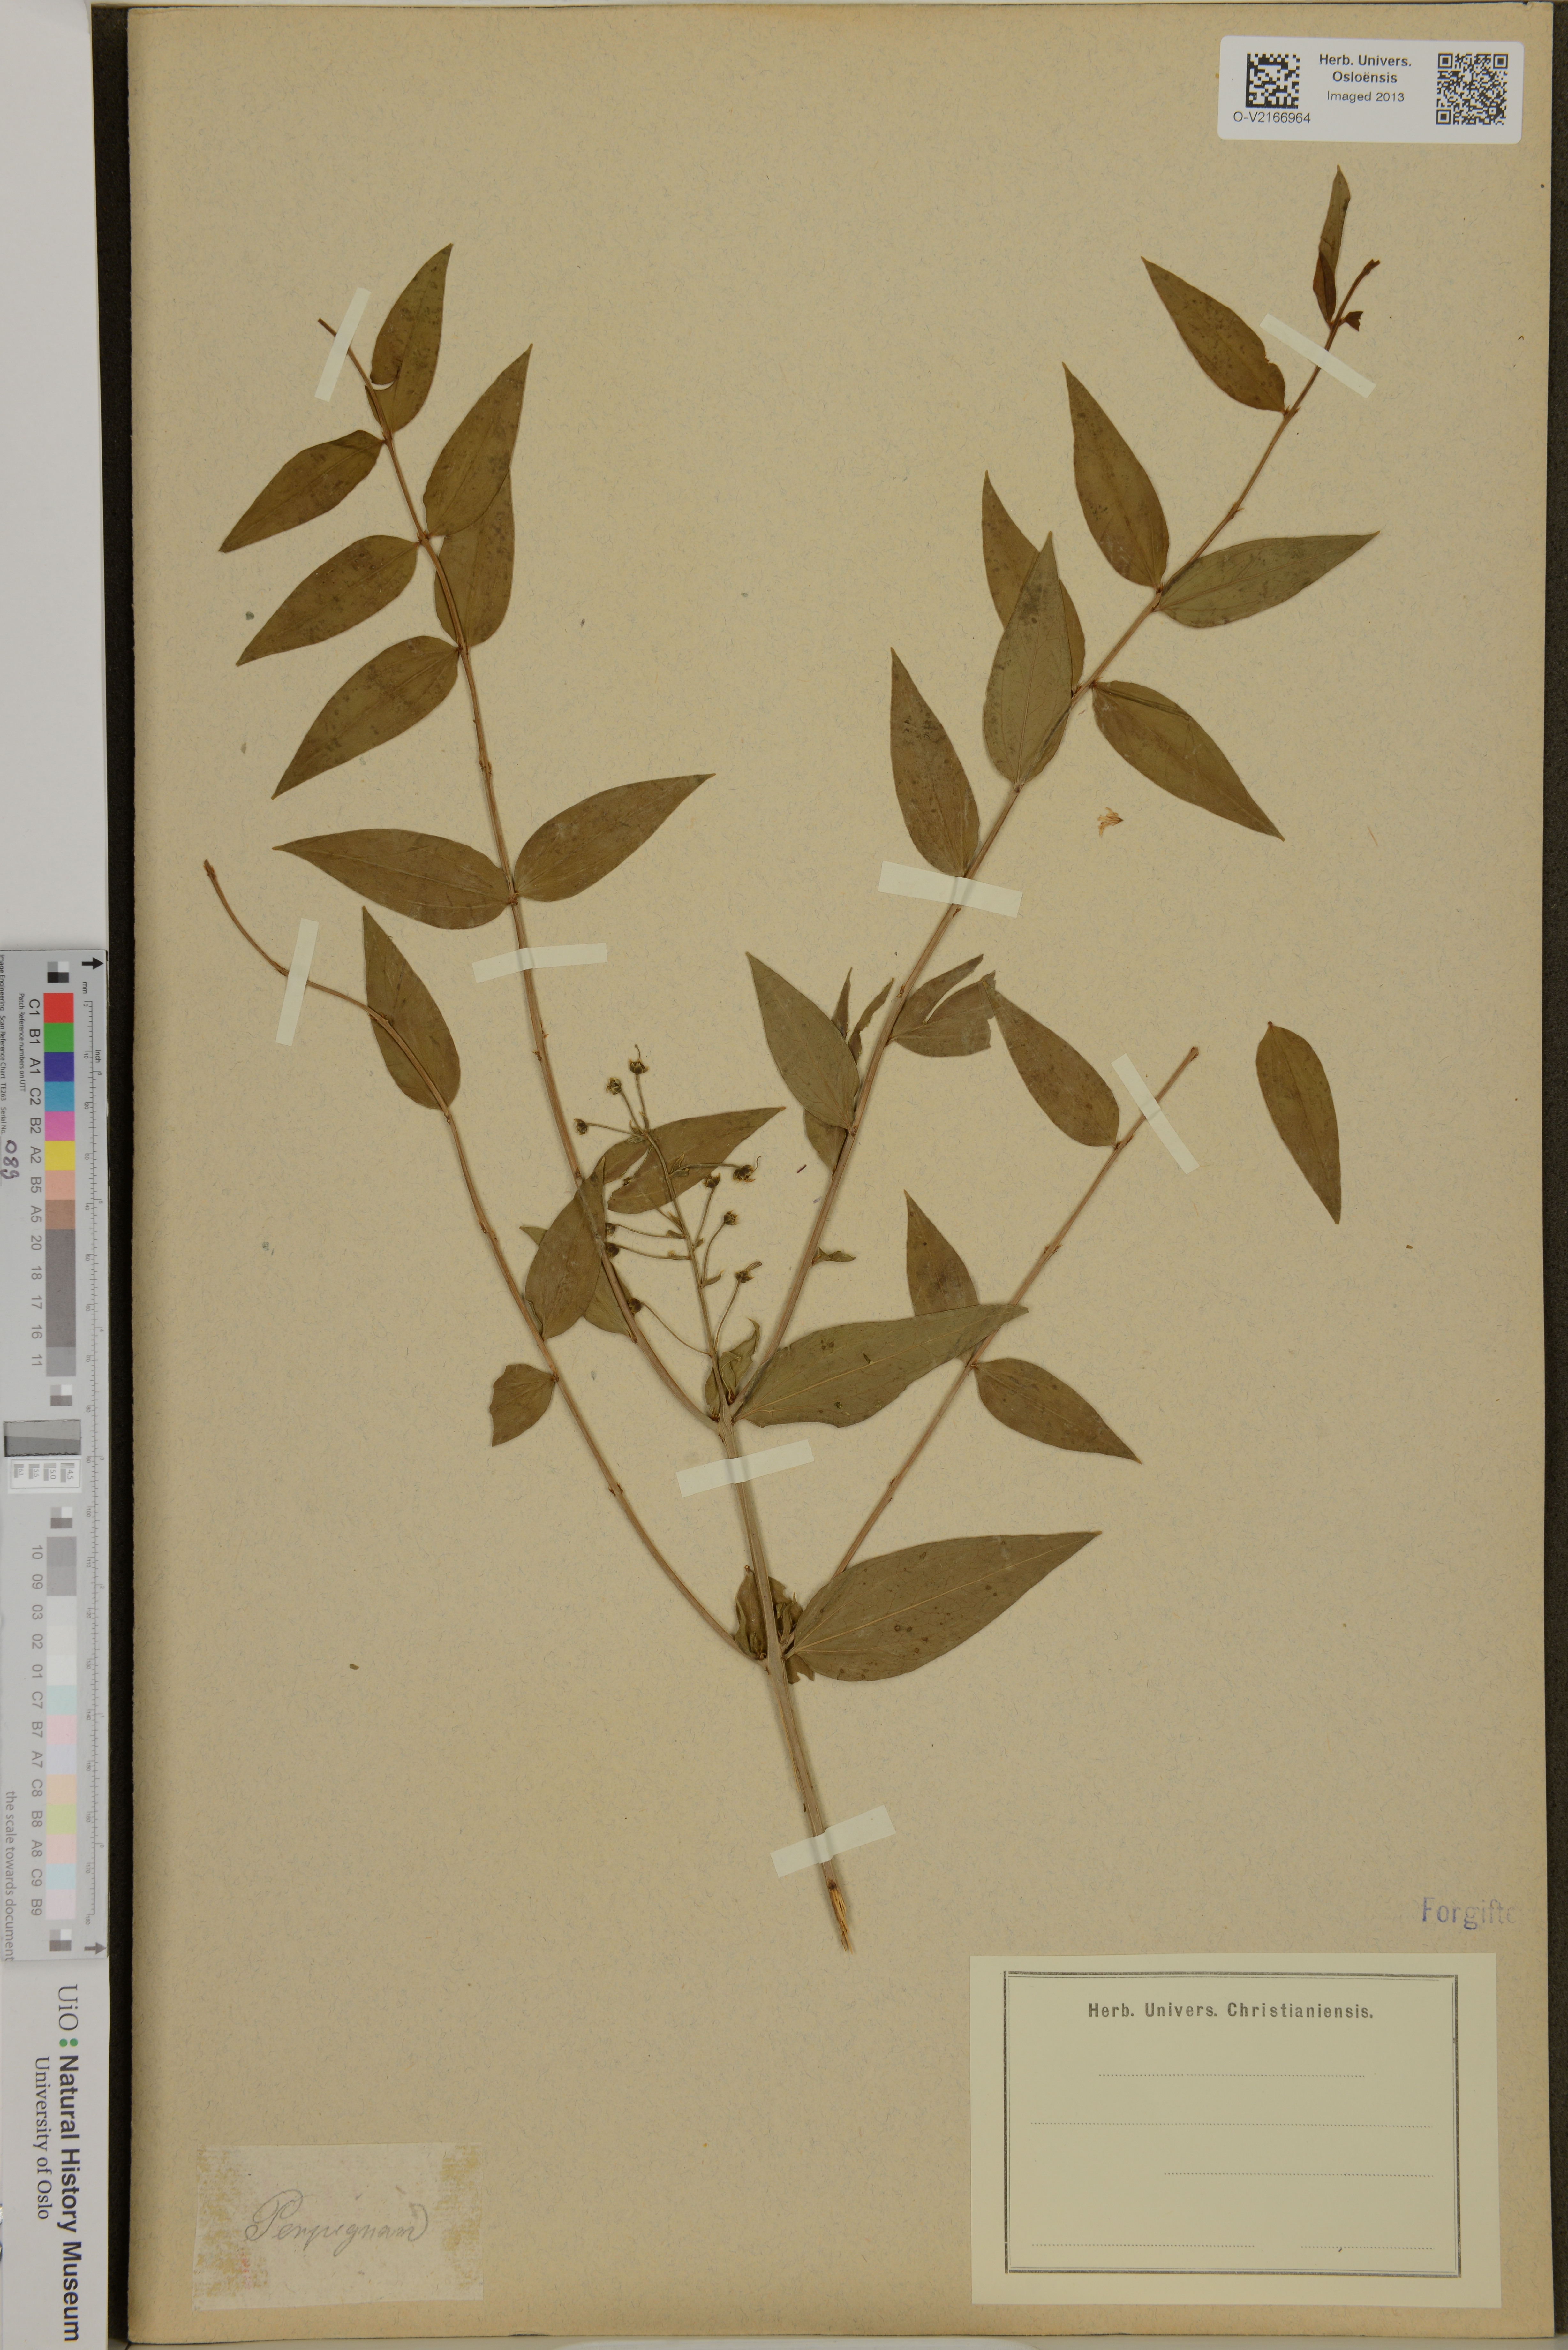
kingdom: Plantae
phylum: Tracheophyta
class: Magnoliopsida
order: Cucurbitales
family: Coriariaceae
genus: Coriaria
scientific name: Coriaria
